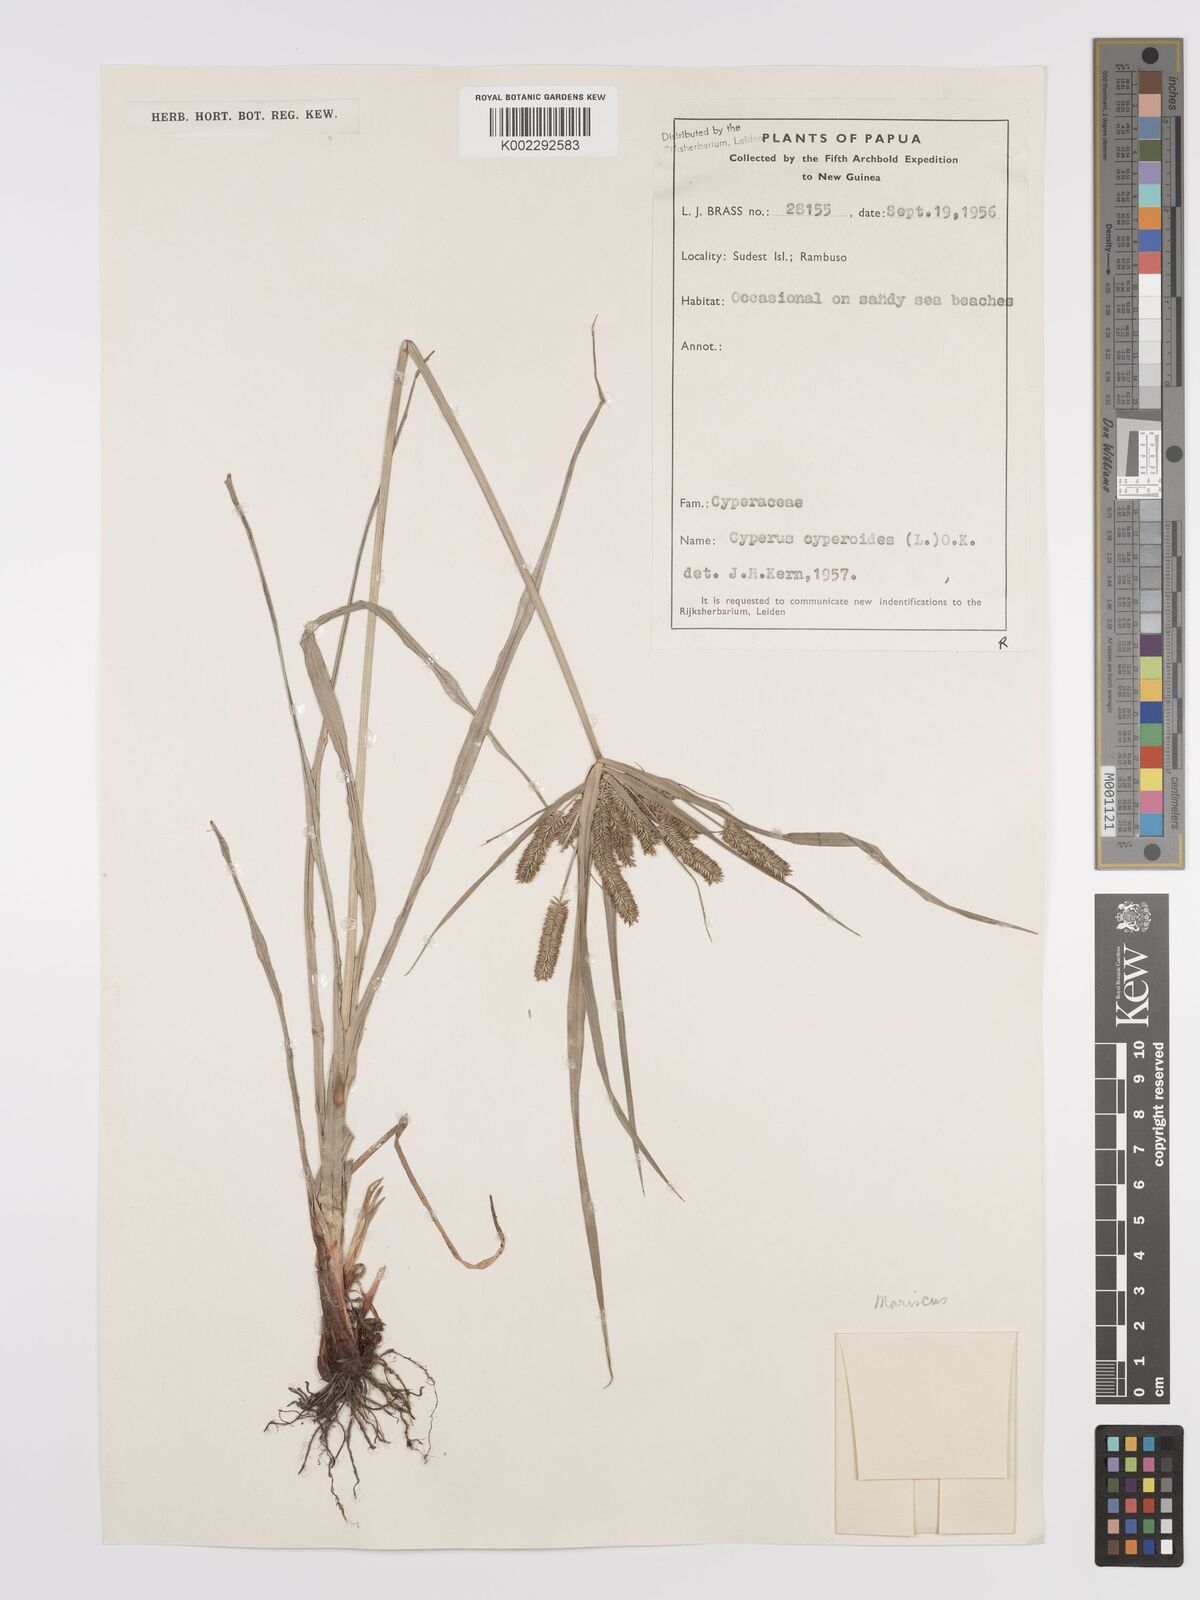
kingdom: Plantae
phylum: Tracheophyta
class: Liliopsida
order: Poales
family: Cyperaceae
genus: Cyperus
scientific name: Cyperus cyperoides
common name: Pacific island flat sedge
